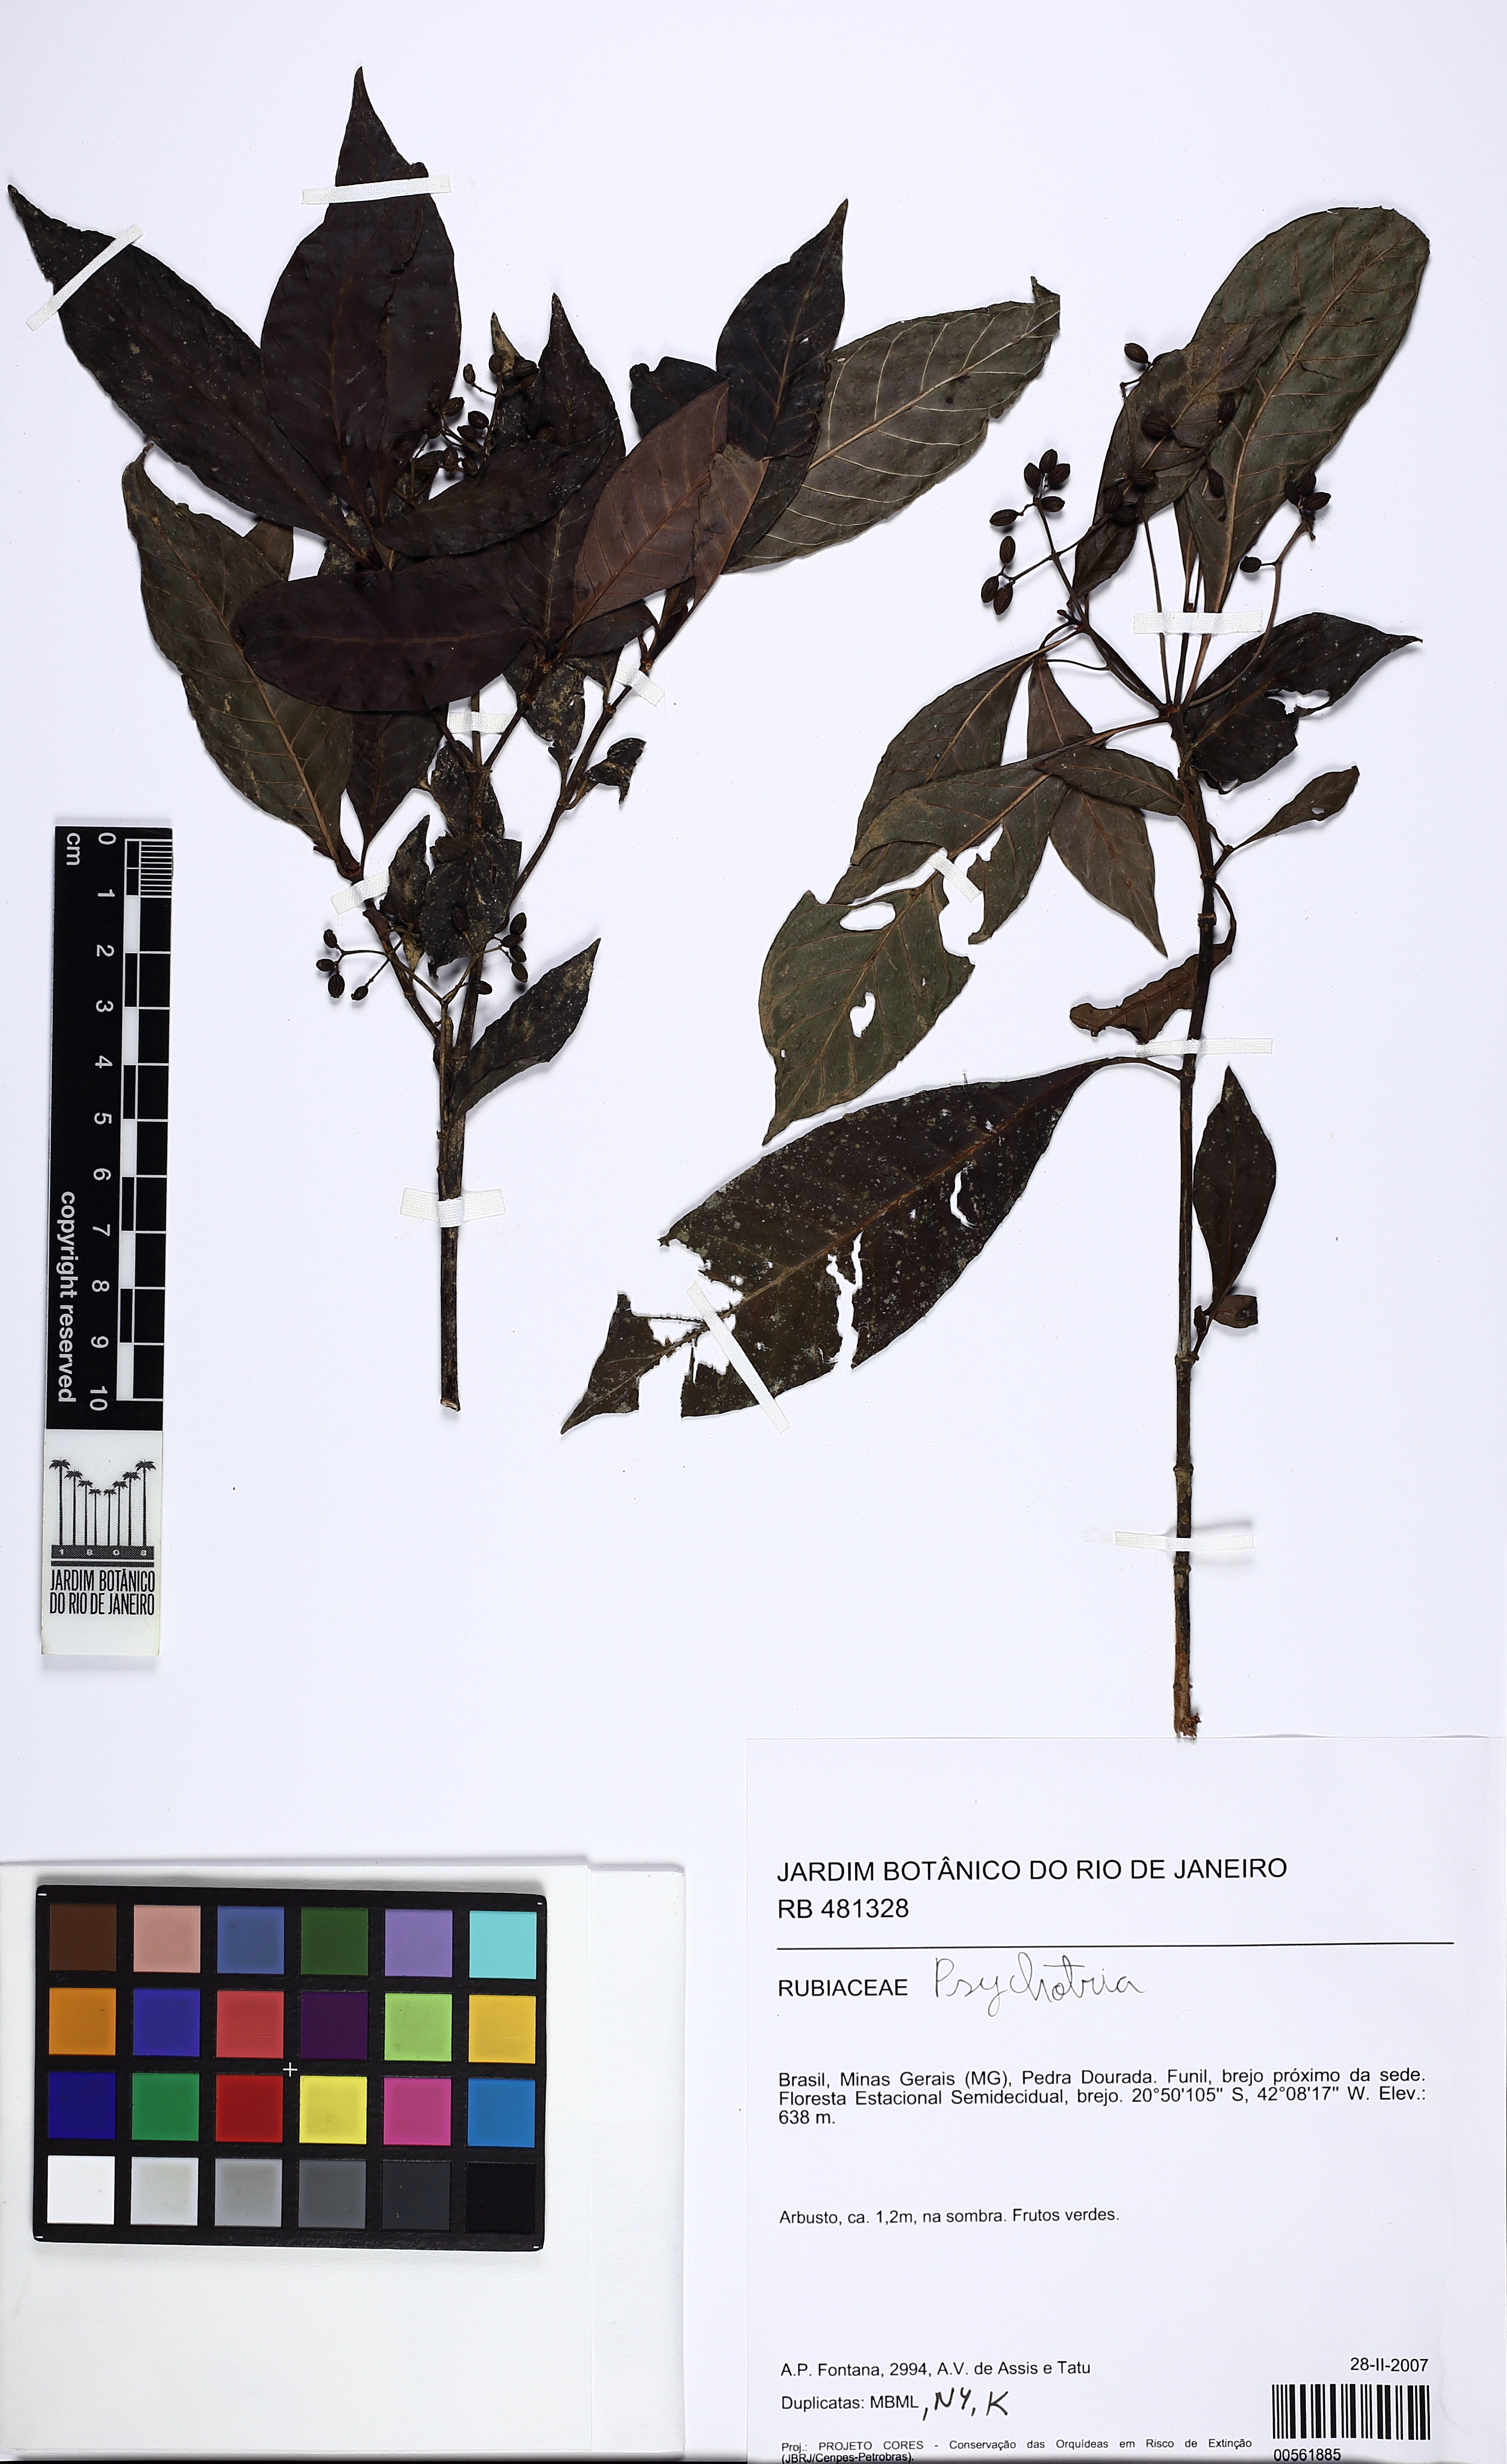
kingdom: Plantae
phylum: Tracheophyta
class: Magnoliopsida
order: Gentianales
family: Rubiaceae
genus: Psychotria
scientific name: Psychotria
